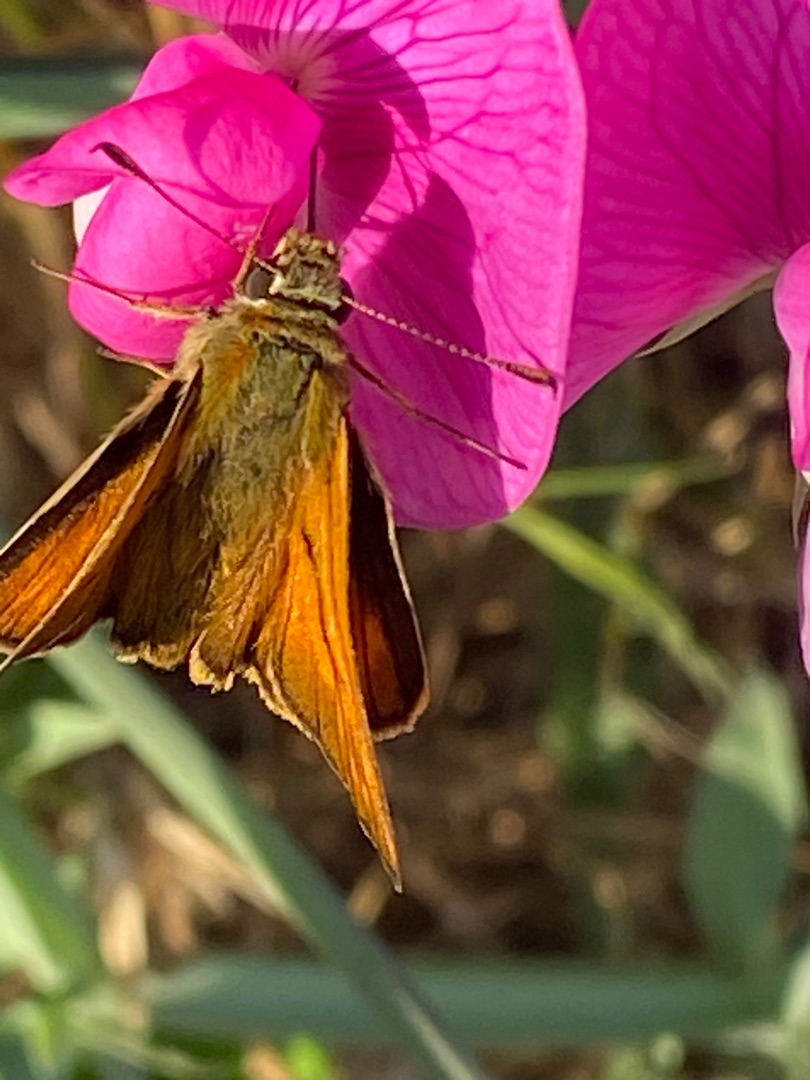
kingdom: Animalia
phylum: Arthropoda
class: Insecta
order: Lepidoptera
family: Hesperiidae
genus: Ochlodes
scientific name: Ochlodes venata
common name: Stor bredpande
